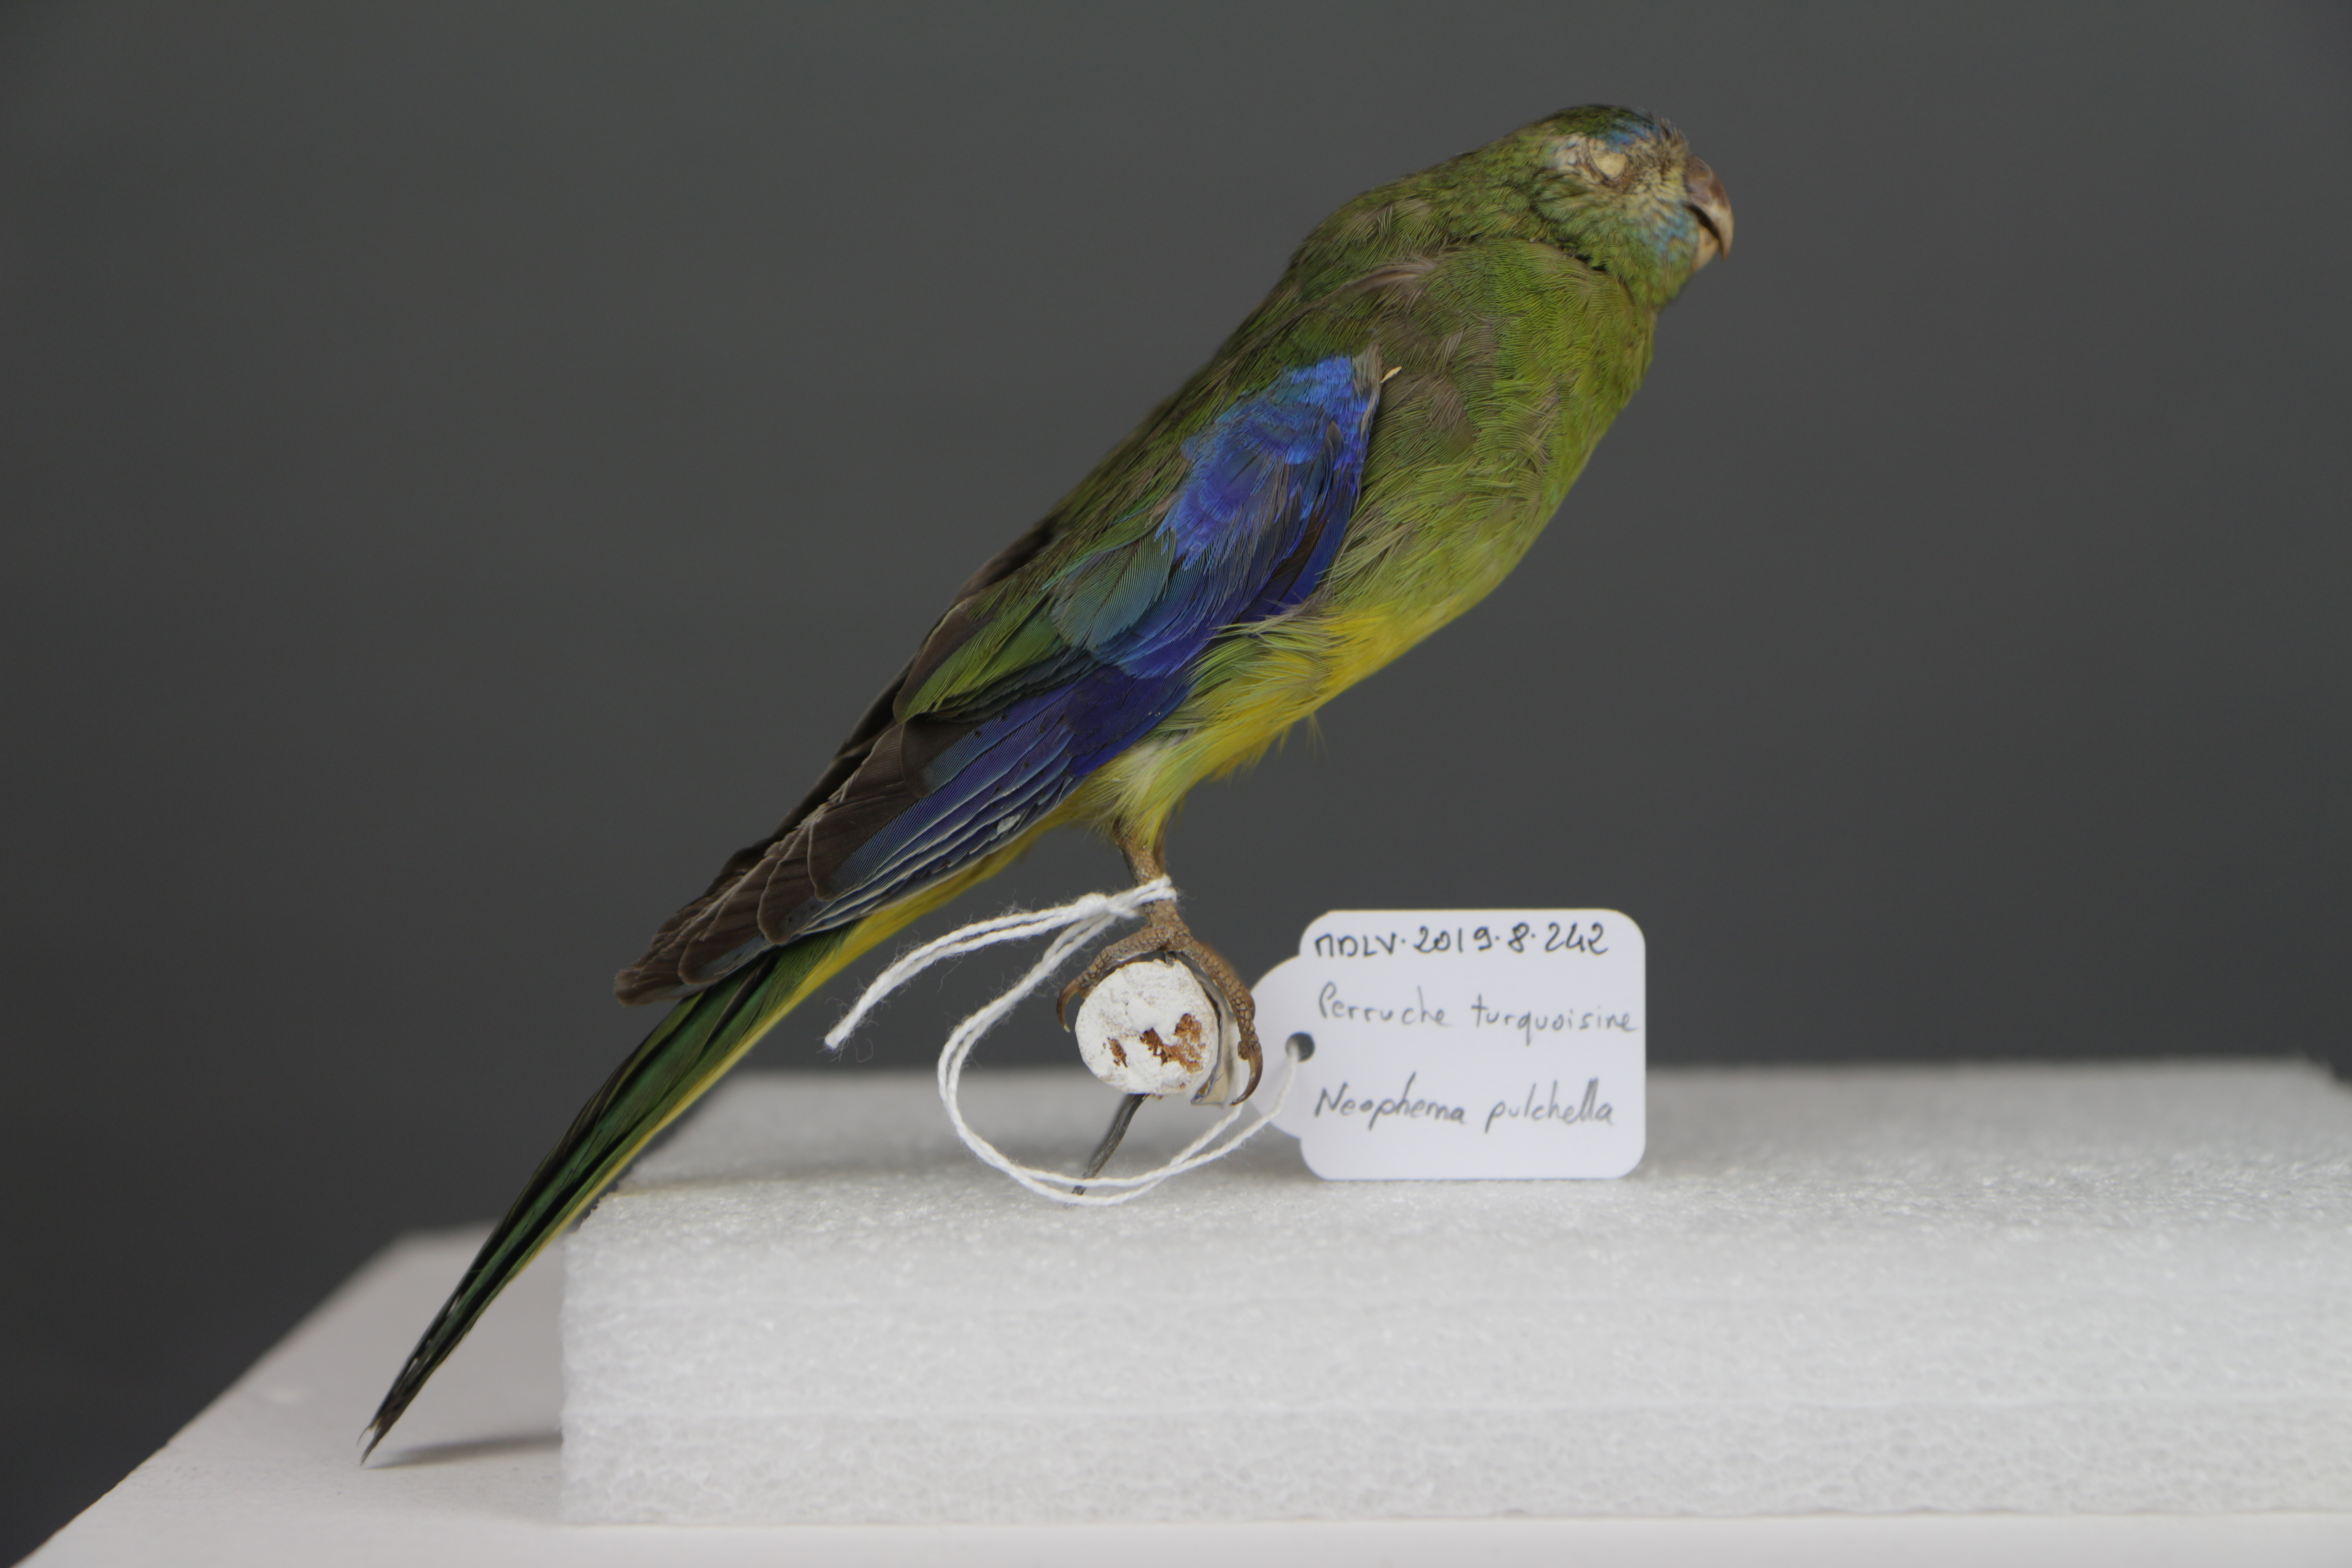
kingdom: Animalia
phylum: Chordata
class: Aves
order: Psittaciformes
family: Psittacidae
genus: Neophema
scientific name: Neophema pulchella
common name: Turquoise parrot
